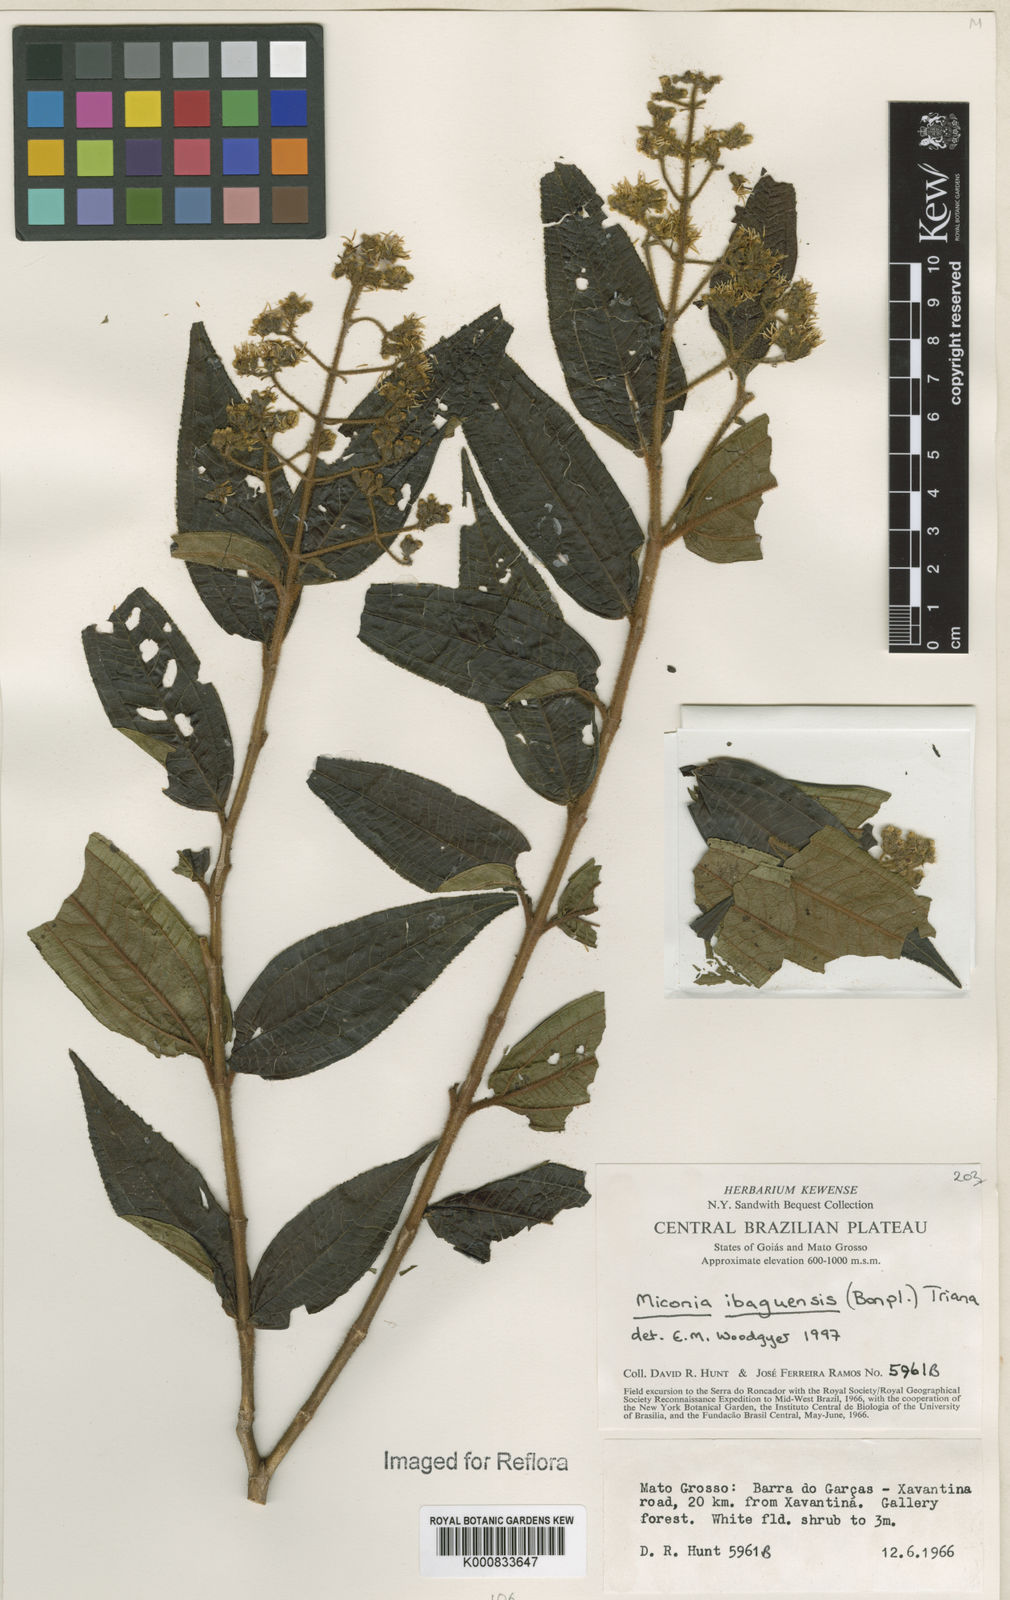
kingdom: Plantae
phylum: Tracheophyta
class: Magnoliopsida
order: Myrtales
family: Melastomataceae
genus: Miconia
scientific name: Miconia ibaguensis
